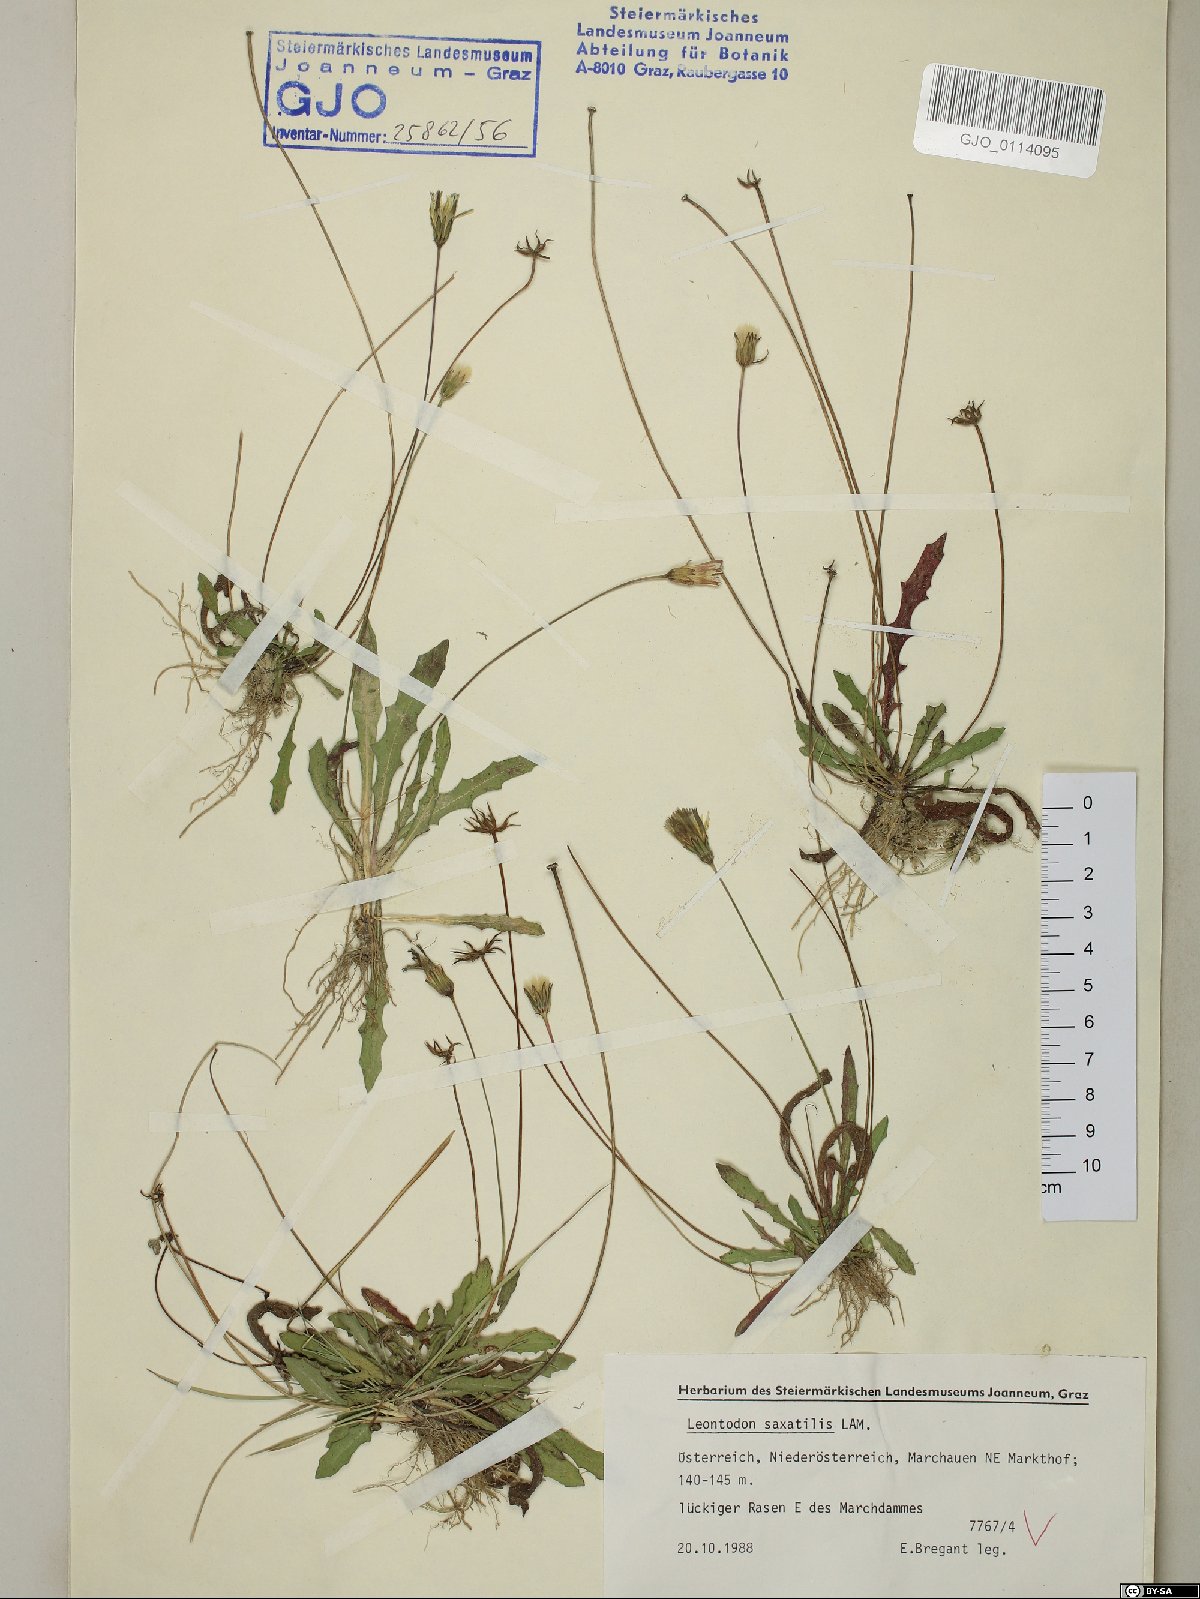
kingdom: Plantae
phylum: Tracheophyta
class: Magnoliopsida
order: Asterales
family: Asteraceae
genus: Thrincia
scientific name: Thrincia saxatilis
